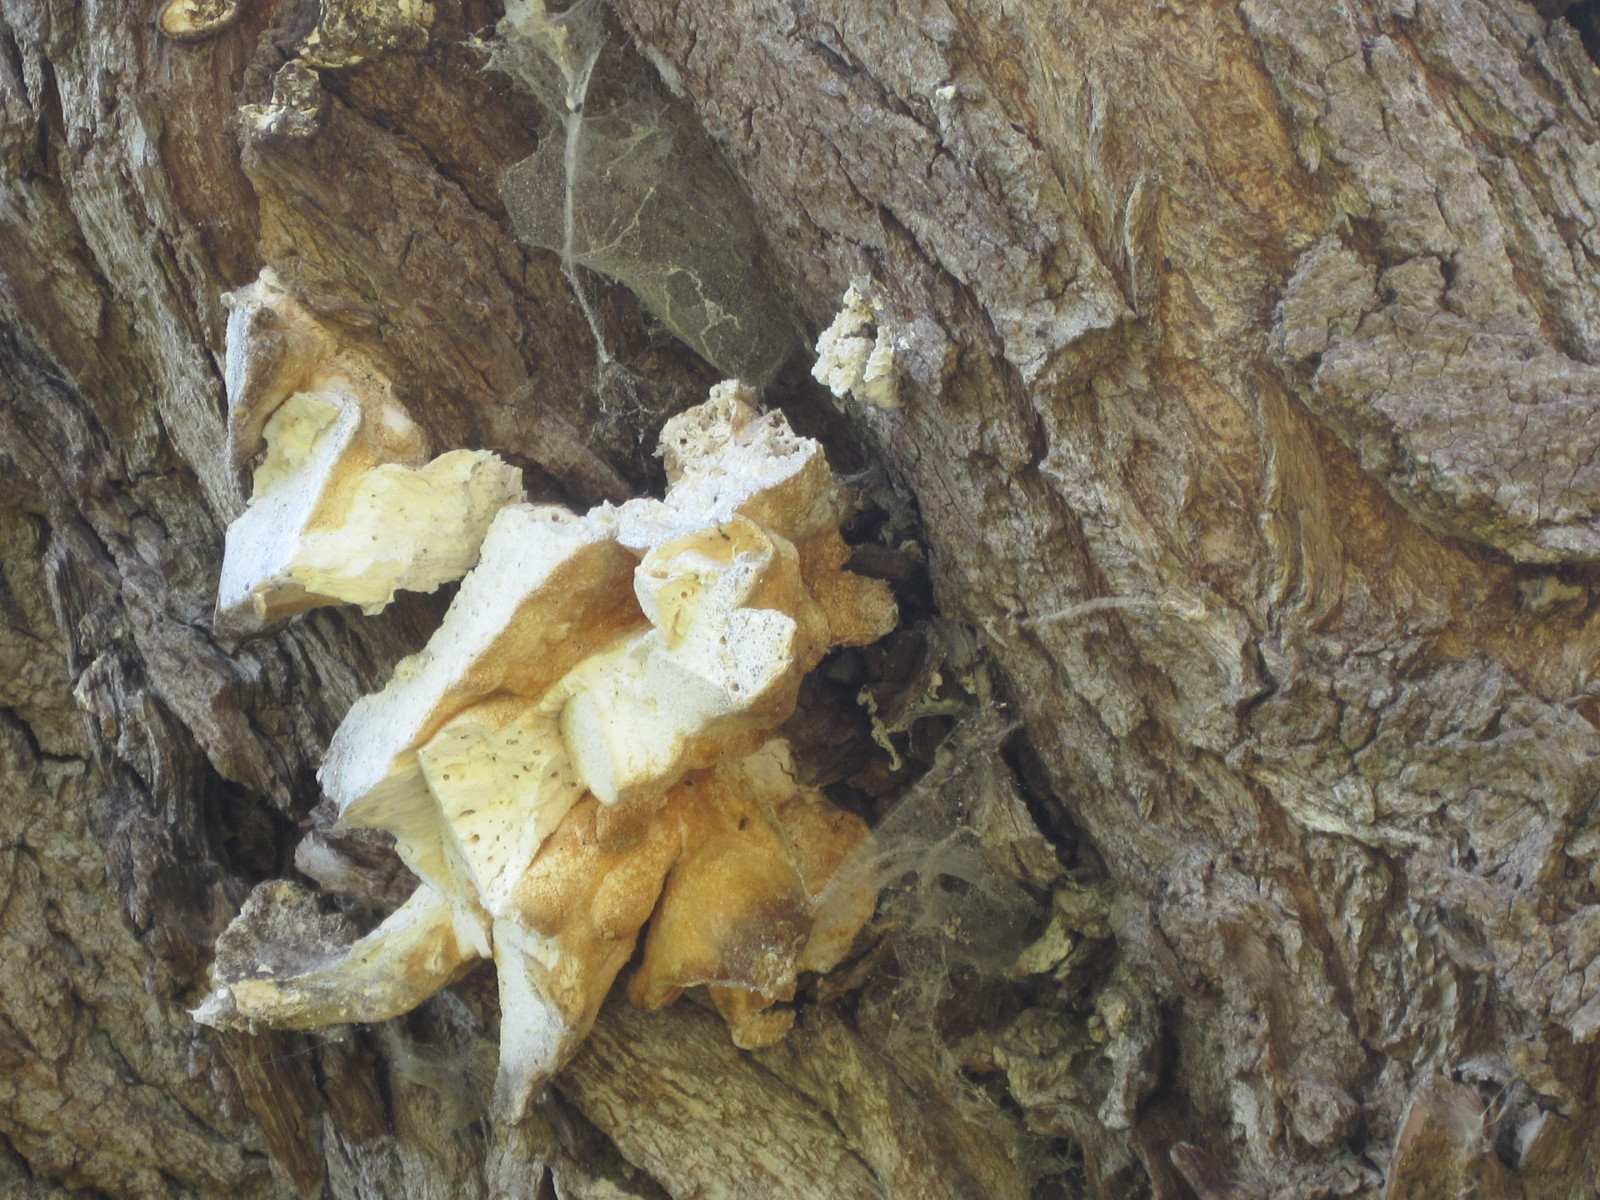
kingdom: Fungi
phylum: Basidiomycota
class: Agaricomycetes
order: Polyporales
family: Laetiporaceae
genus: Laetiporus
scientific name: Laetiporus sulphureus
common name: svovlporesvamp
